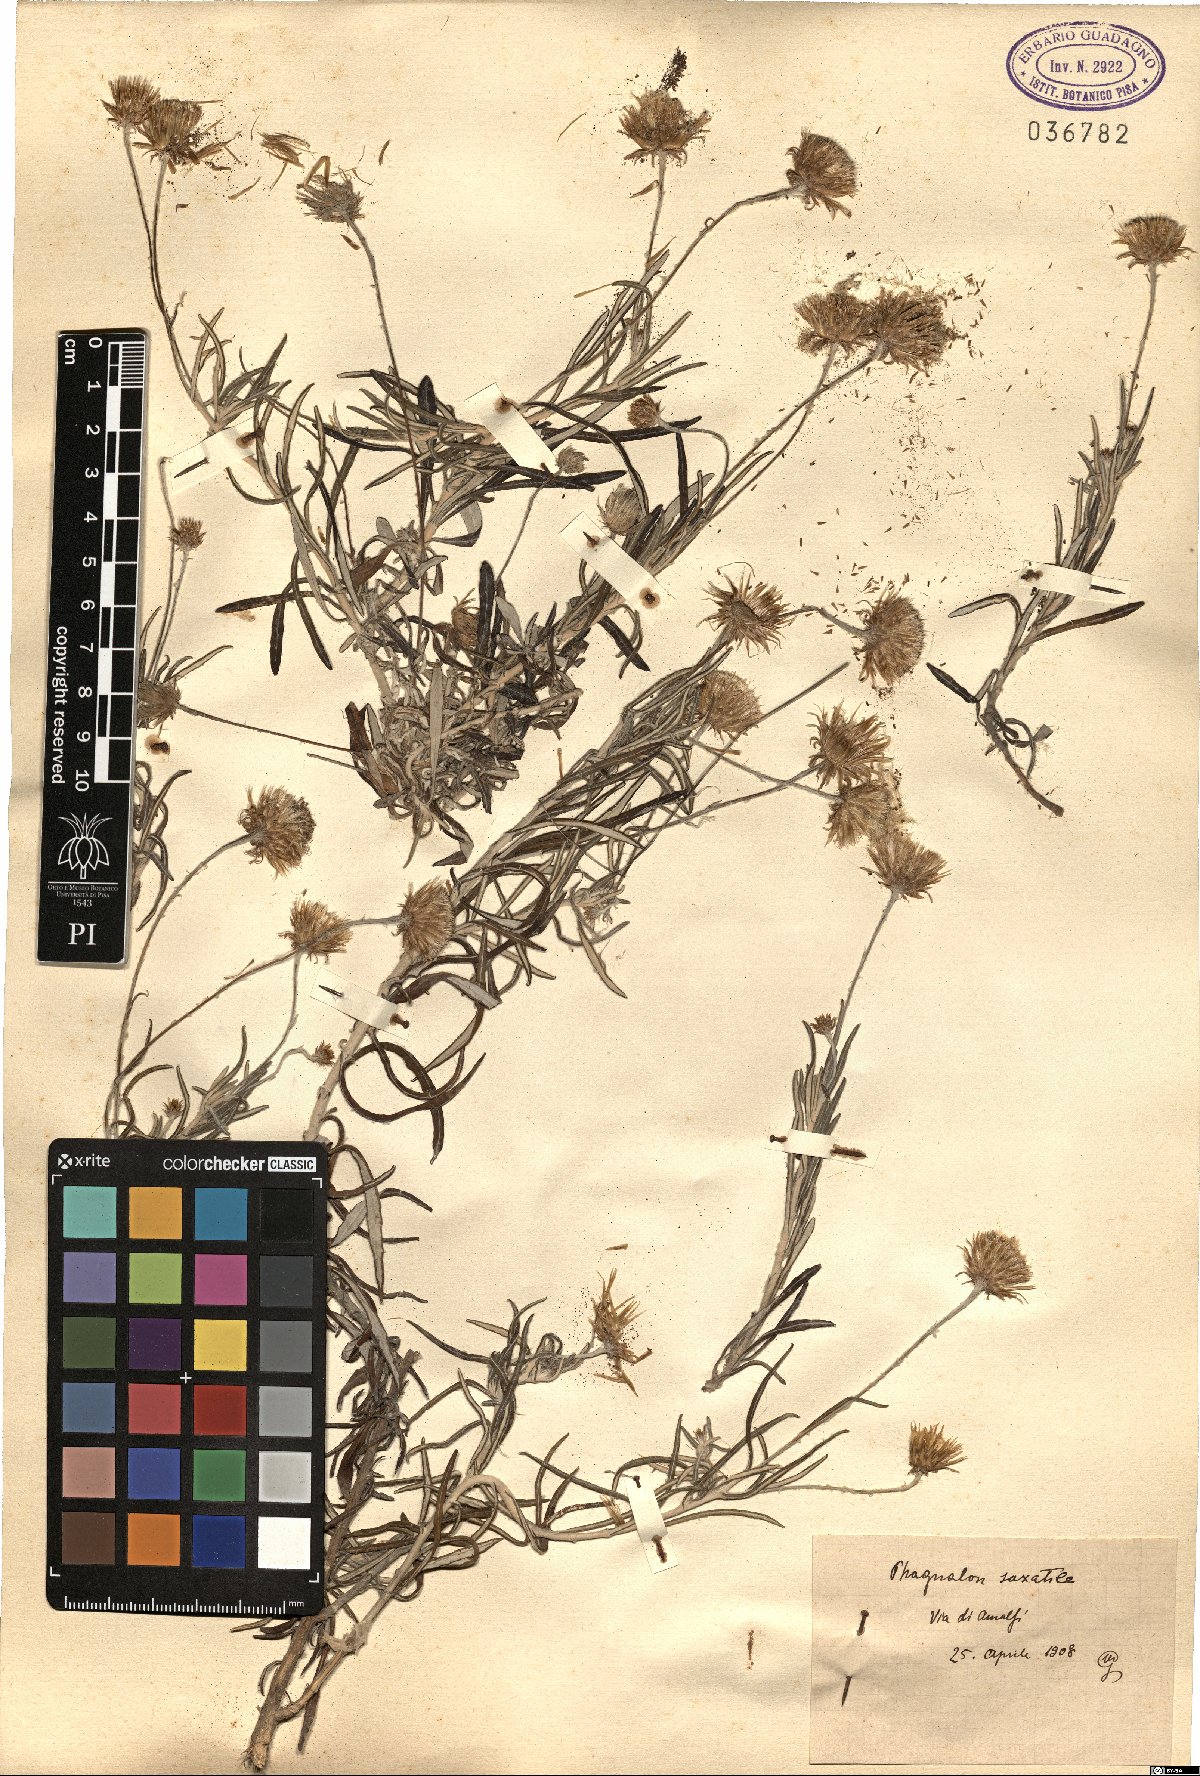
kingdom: Plantae
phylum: Tracheophyta
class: Magnoliopsida
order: Asterales
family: Asteraceae
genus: Phagnalon
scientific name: Phagnalon saxatile
